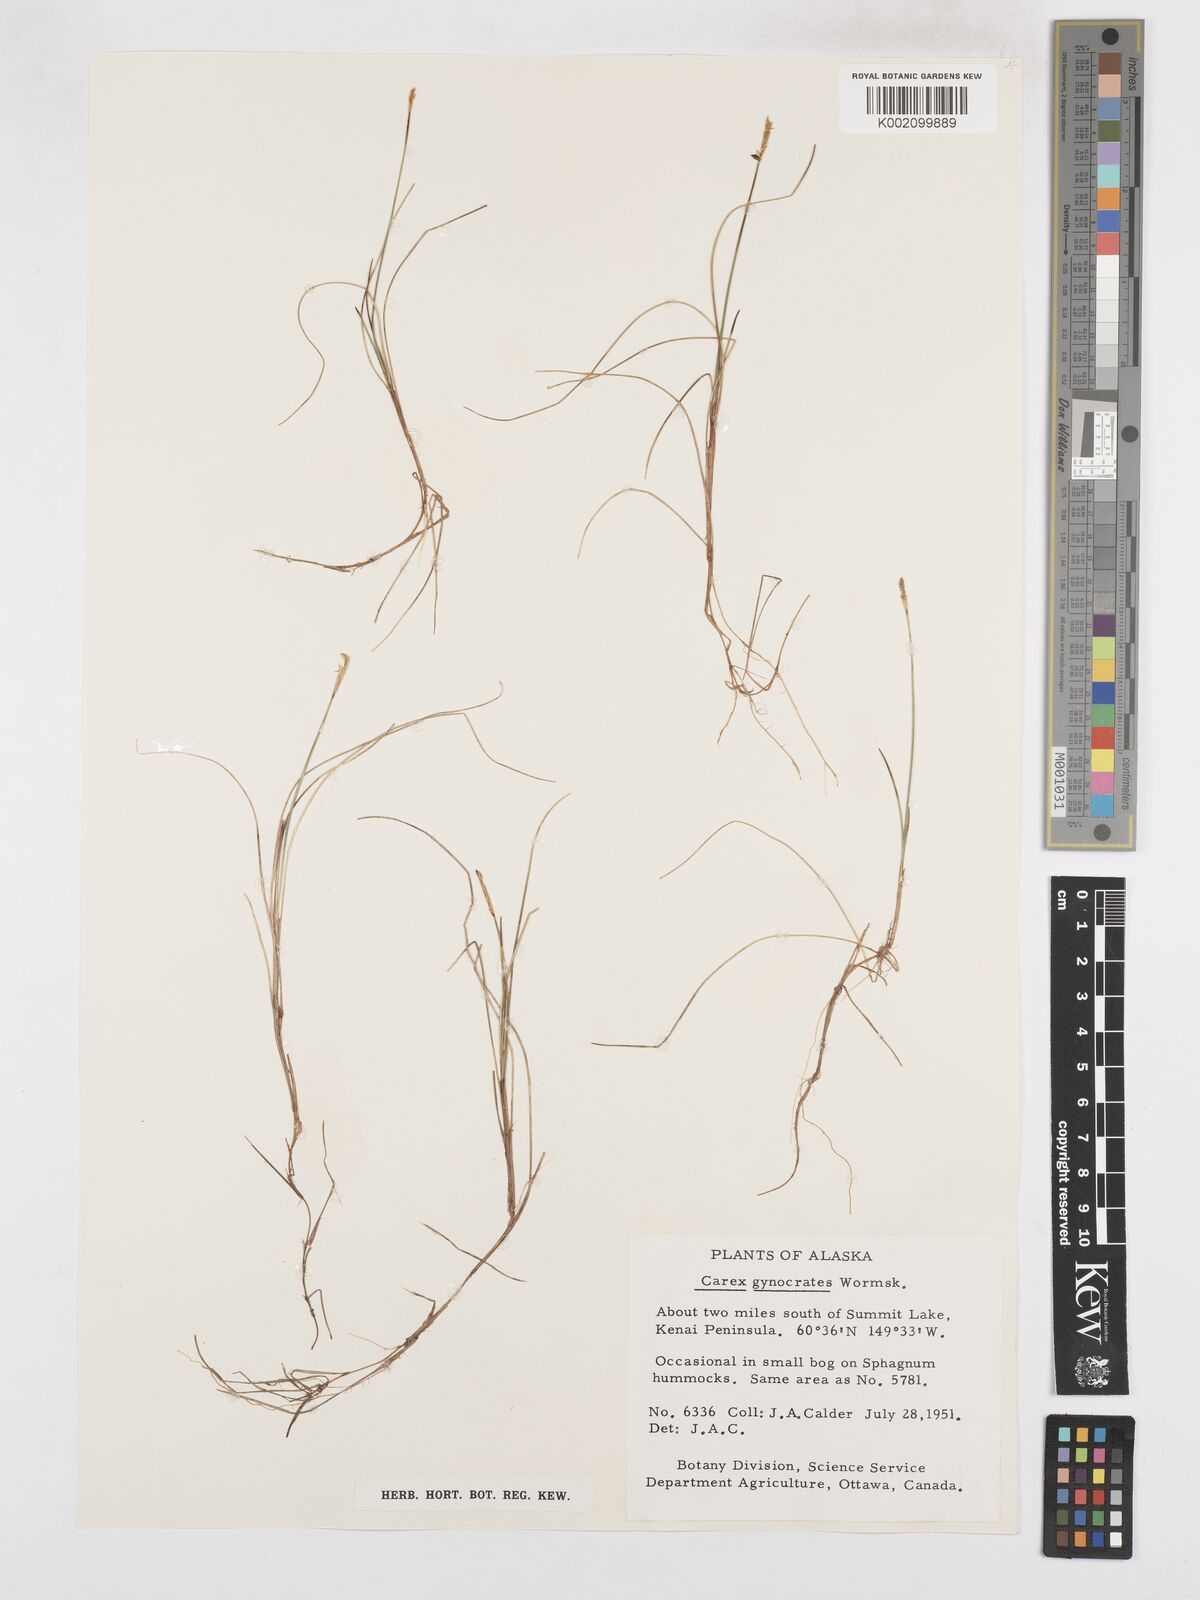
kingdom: Plantae
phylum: Tracheophyta
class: Liliopsida
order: Poales
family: Cyperaceae
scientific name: Cyperaceae
